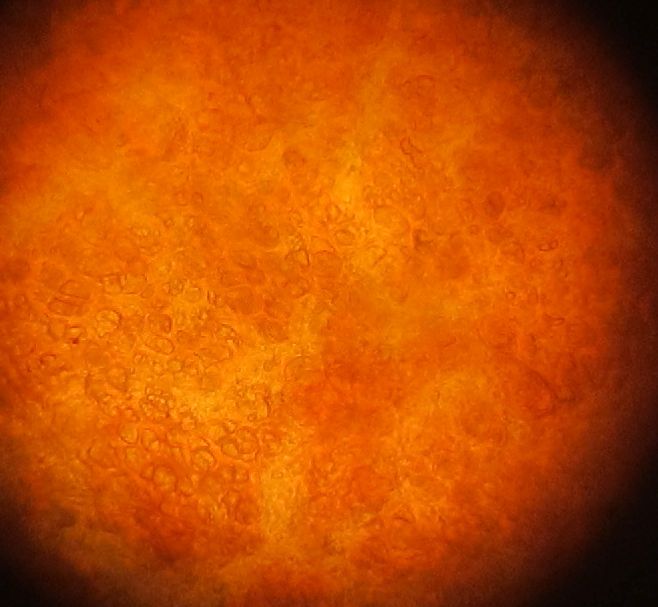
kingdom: Fungi
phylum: Ascomycota
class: Sordariomycetes
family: Thyridiaceae
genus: Thyronectria
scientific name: Thyronectria sinopica
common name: vedbend-cinnobersvamp
